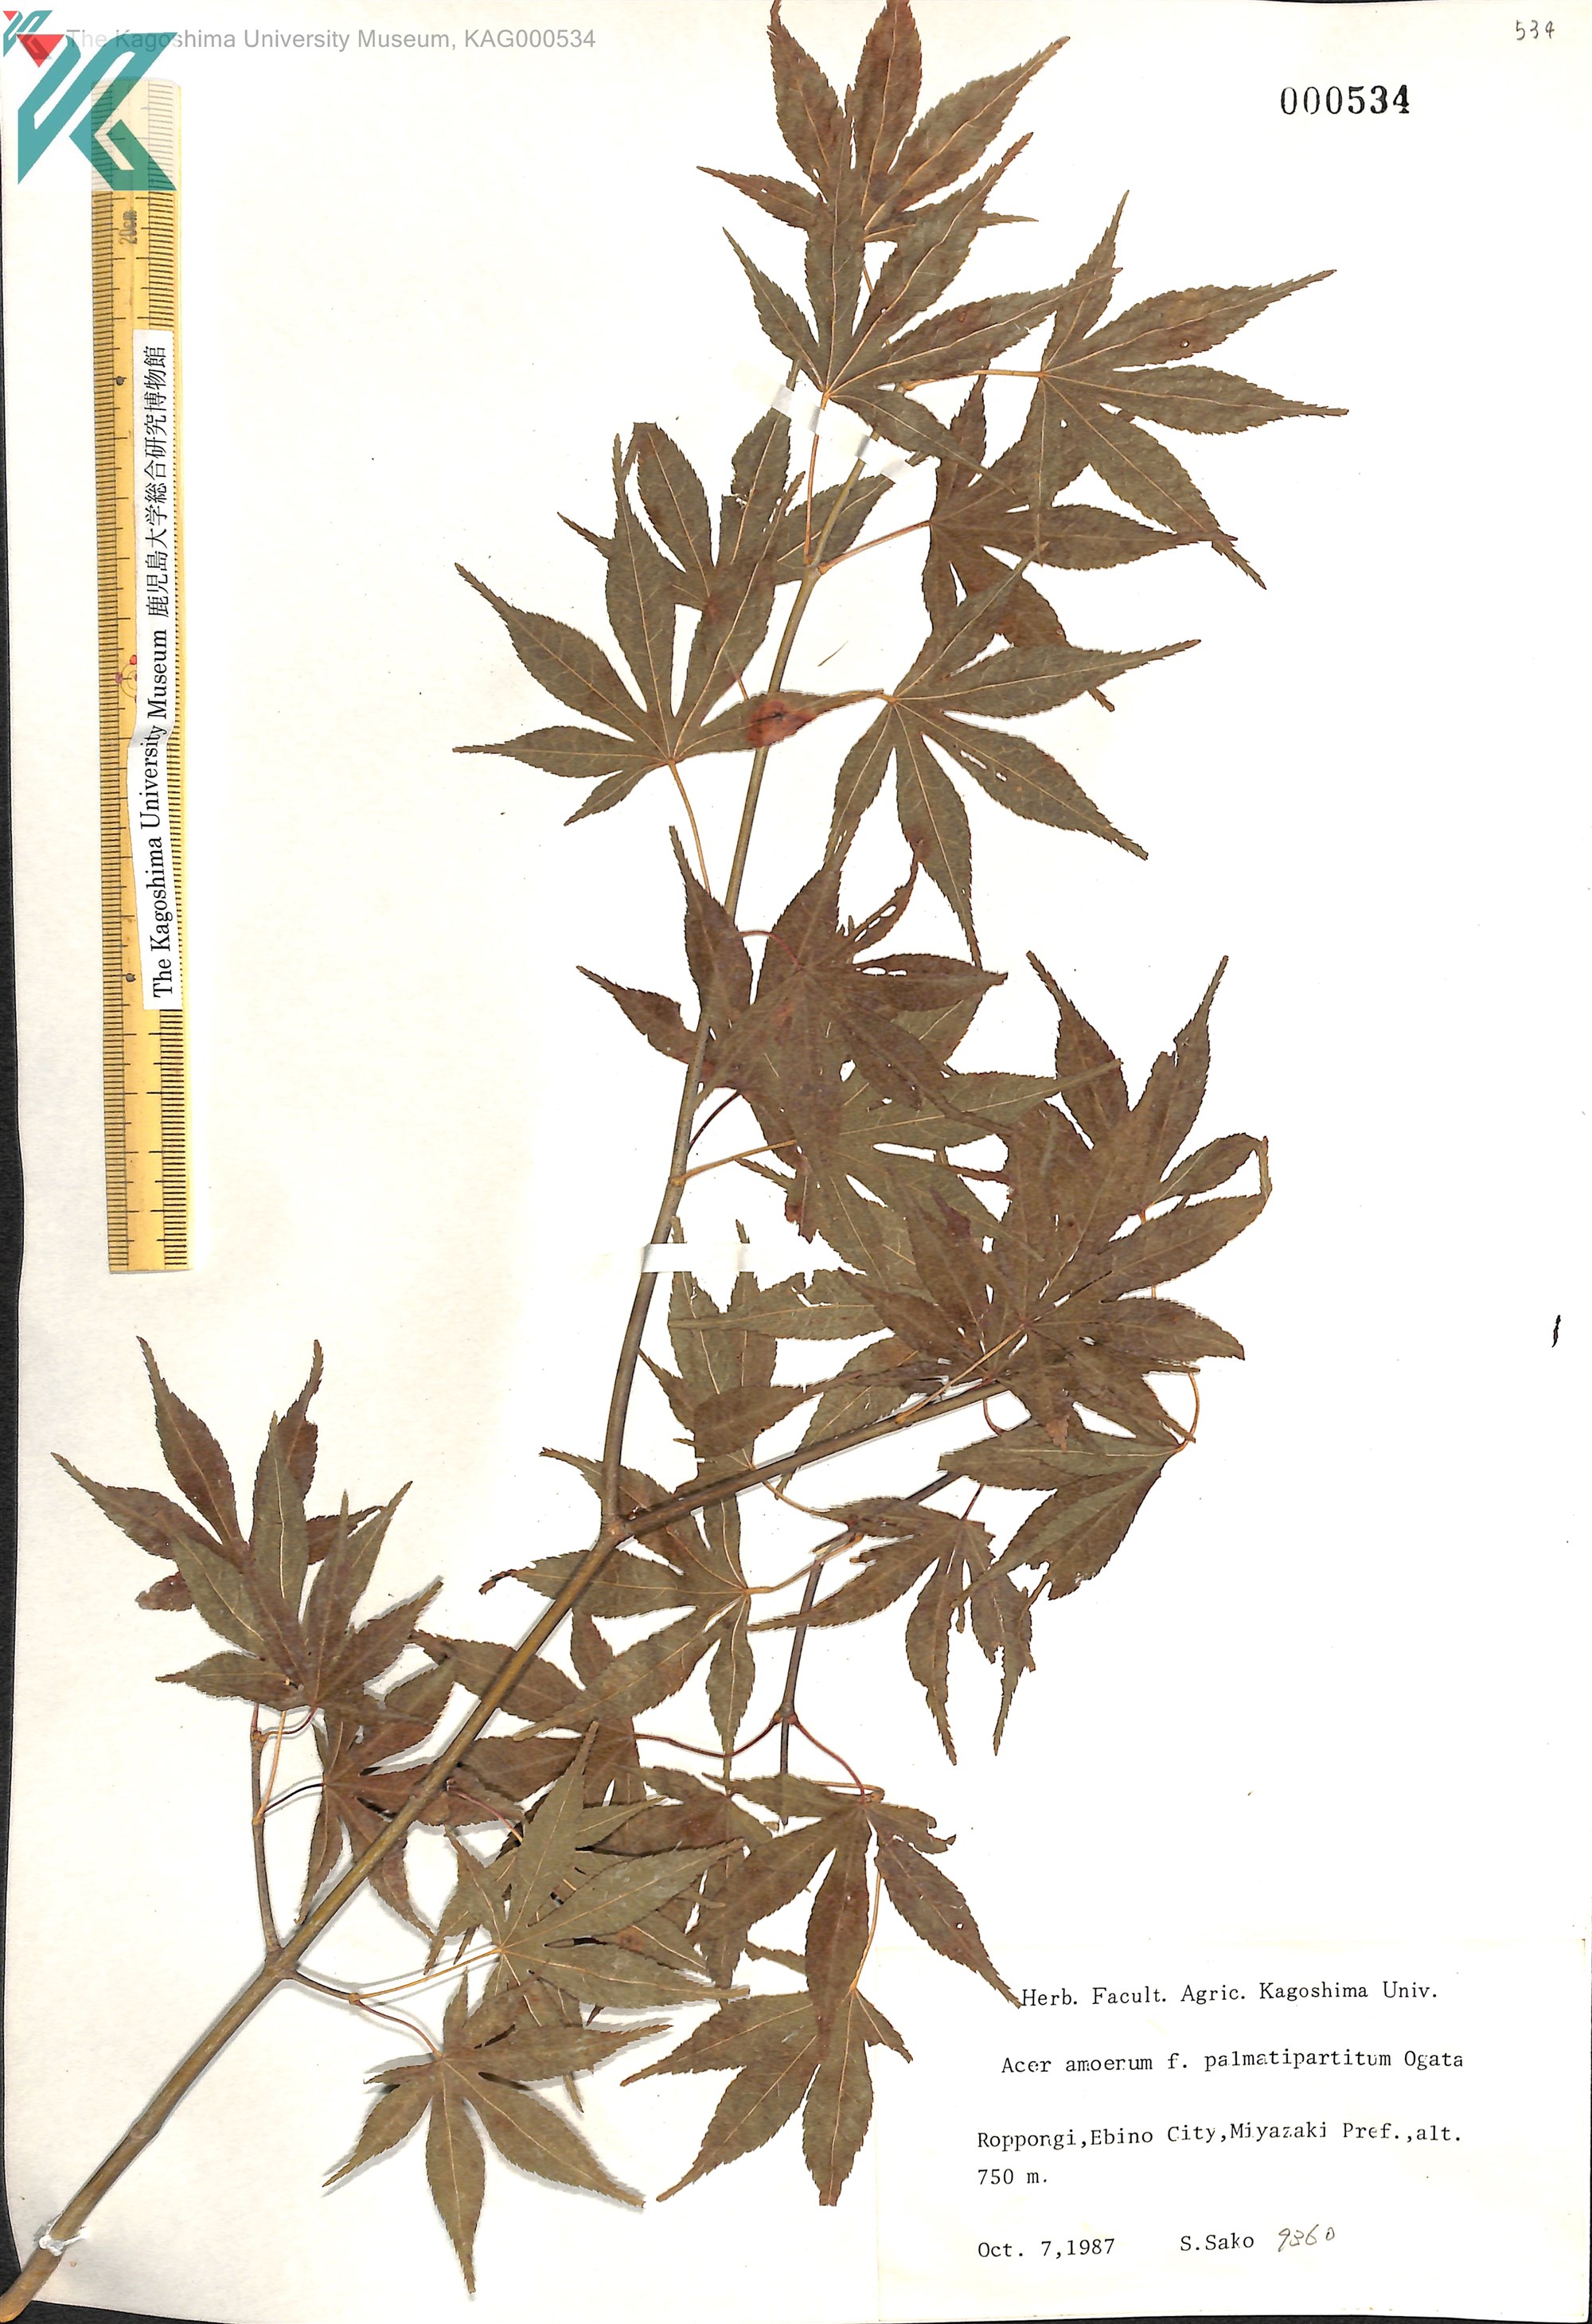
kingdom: Plantae
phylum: Tracheophyta
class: Magnoliopsida
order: Sapindales
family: Sapindaceae
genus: Acer
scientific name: Acer palmatum
